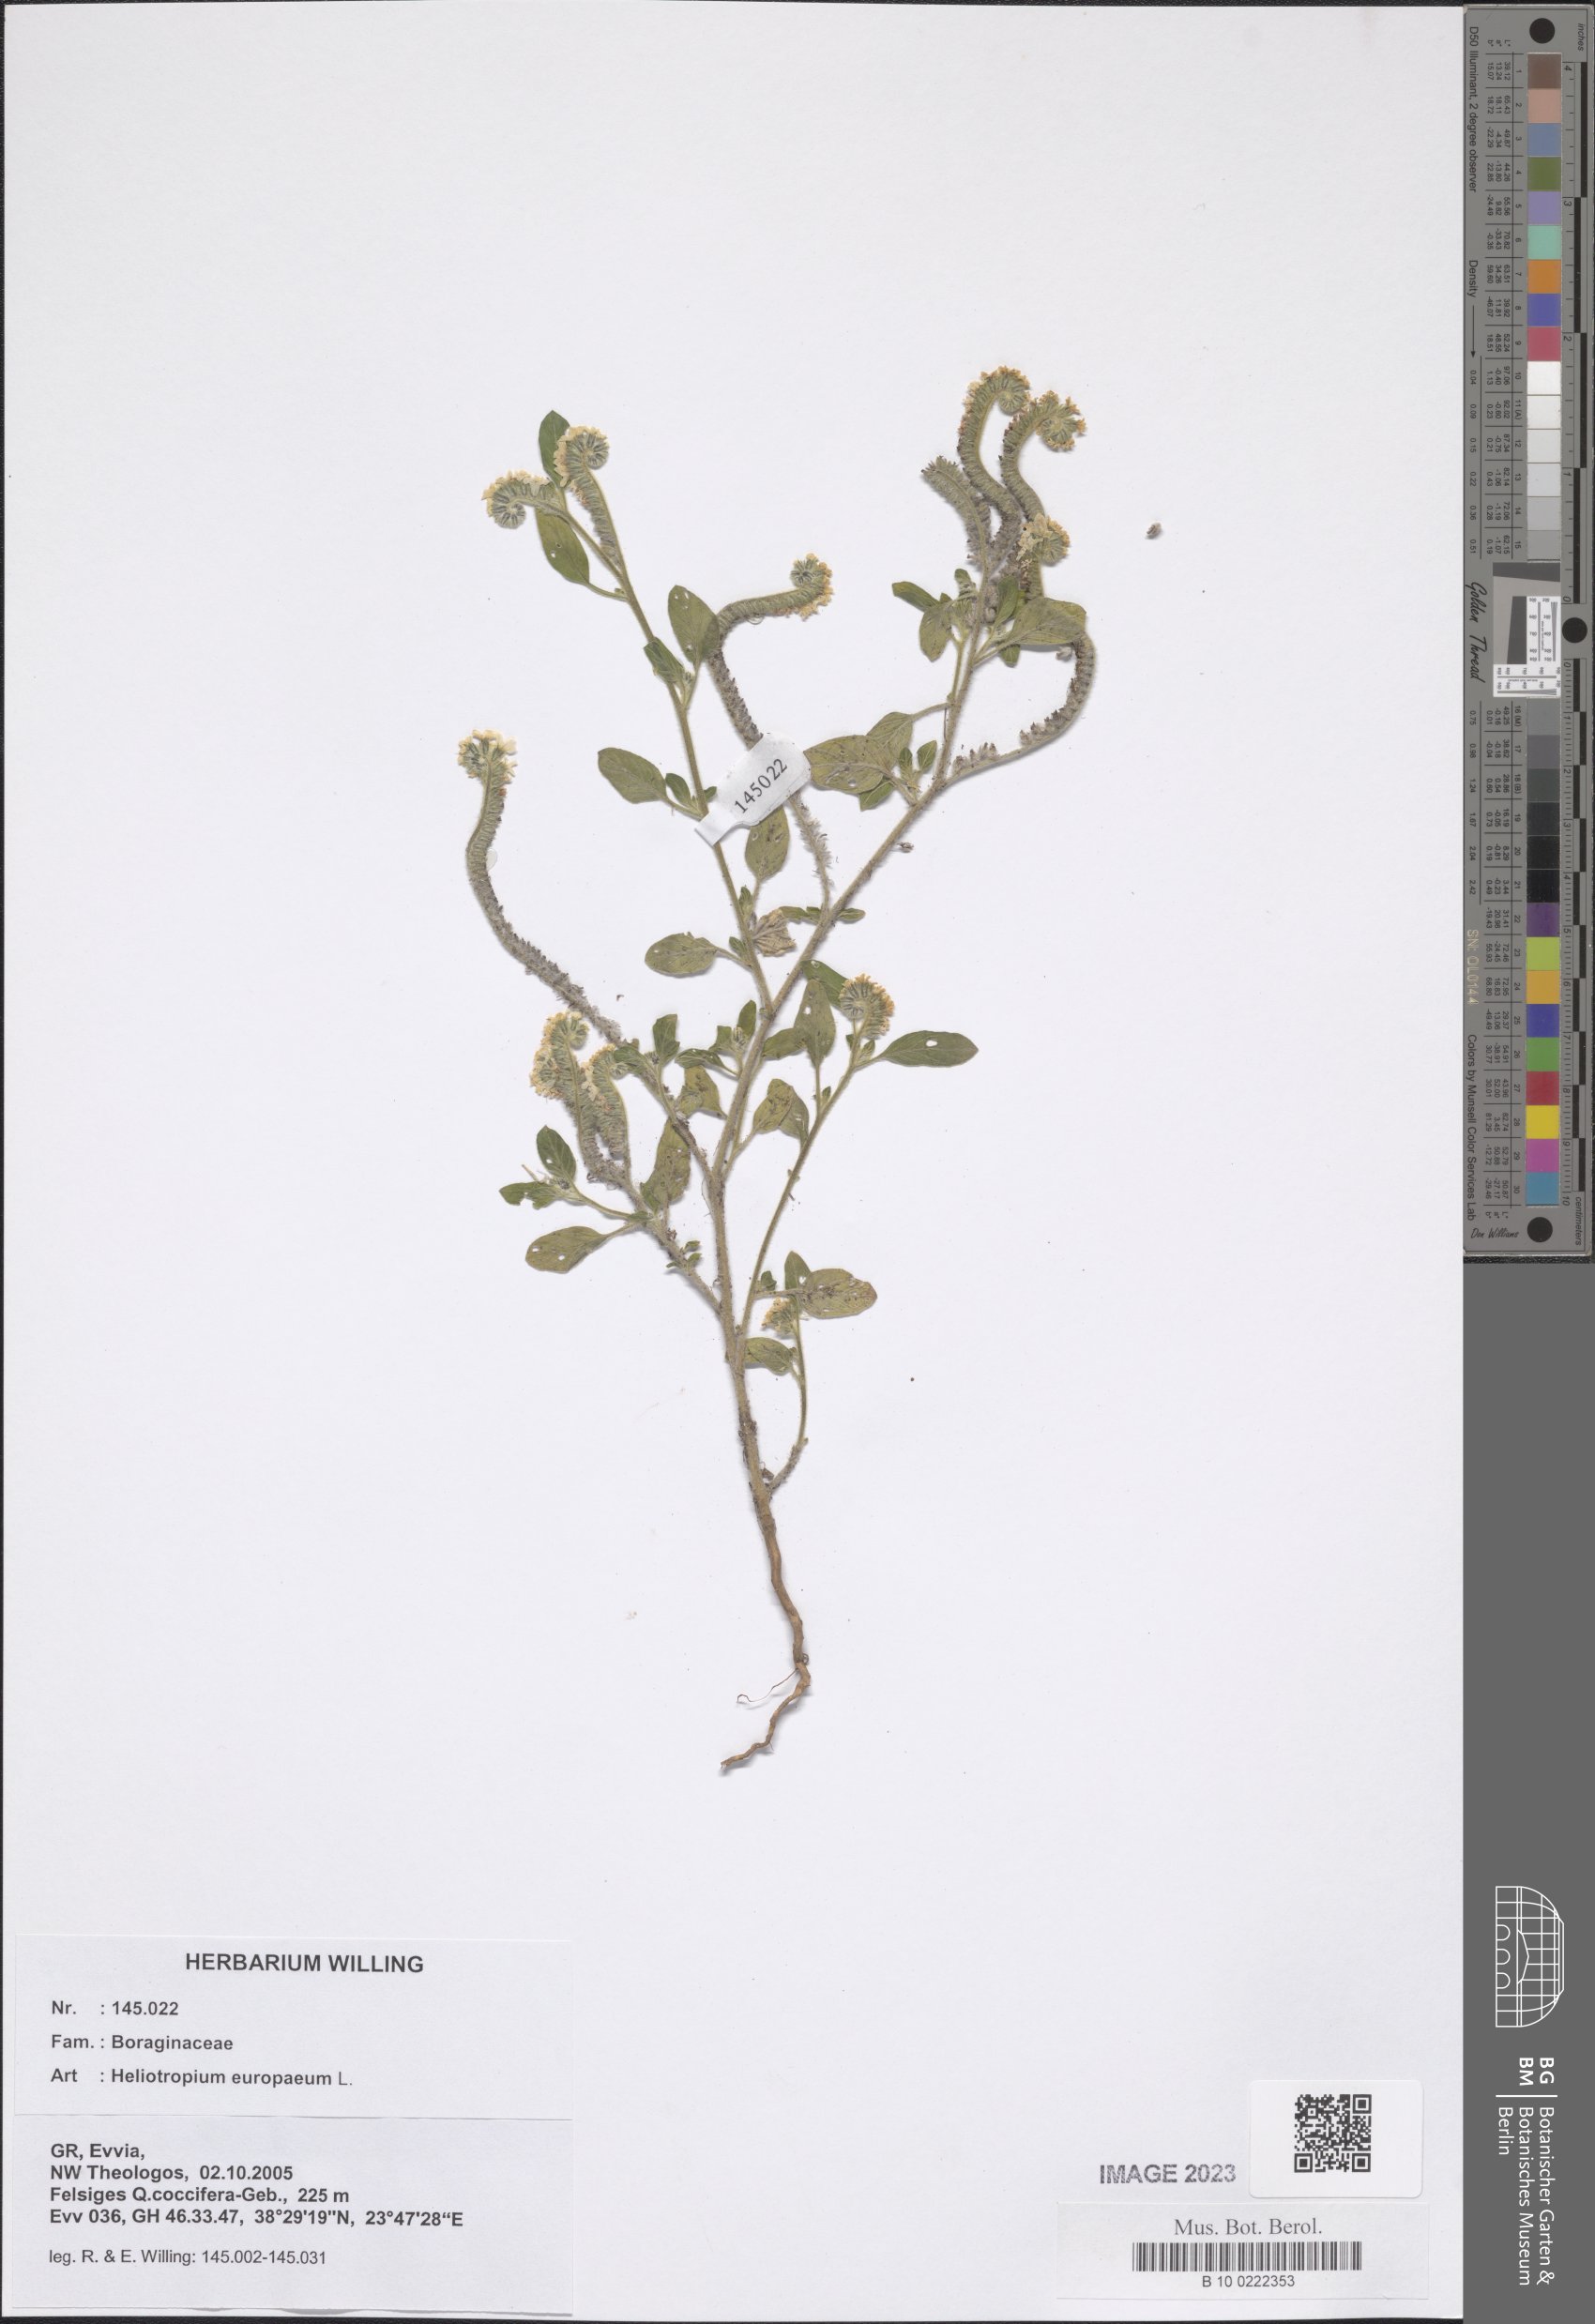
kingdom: Plantae
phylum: Tracheophyta
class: Magnoliopsida
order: Boraginales
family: Heliotropiaceae
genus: Heliotropium
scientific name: Heliotropium europaeum
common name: European heliotrope
